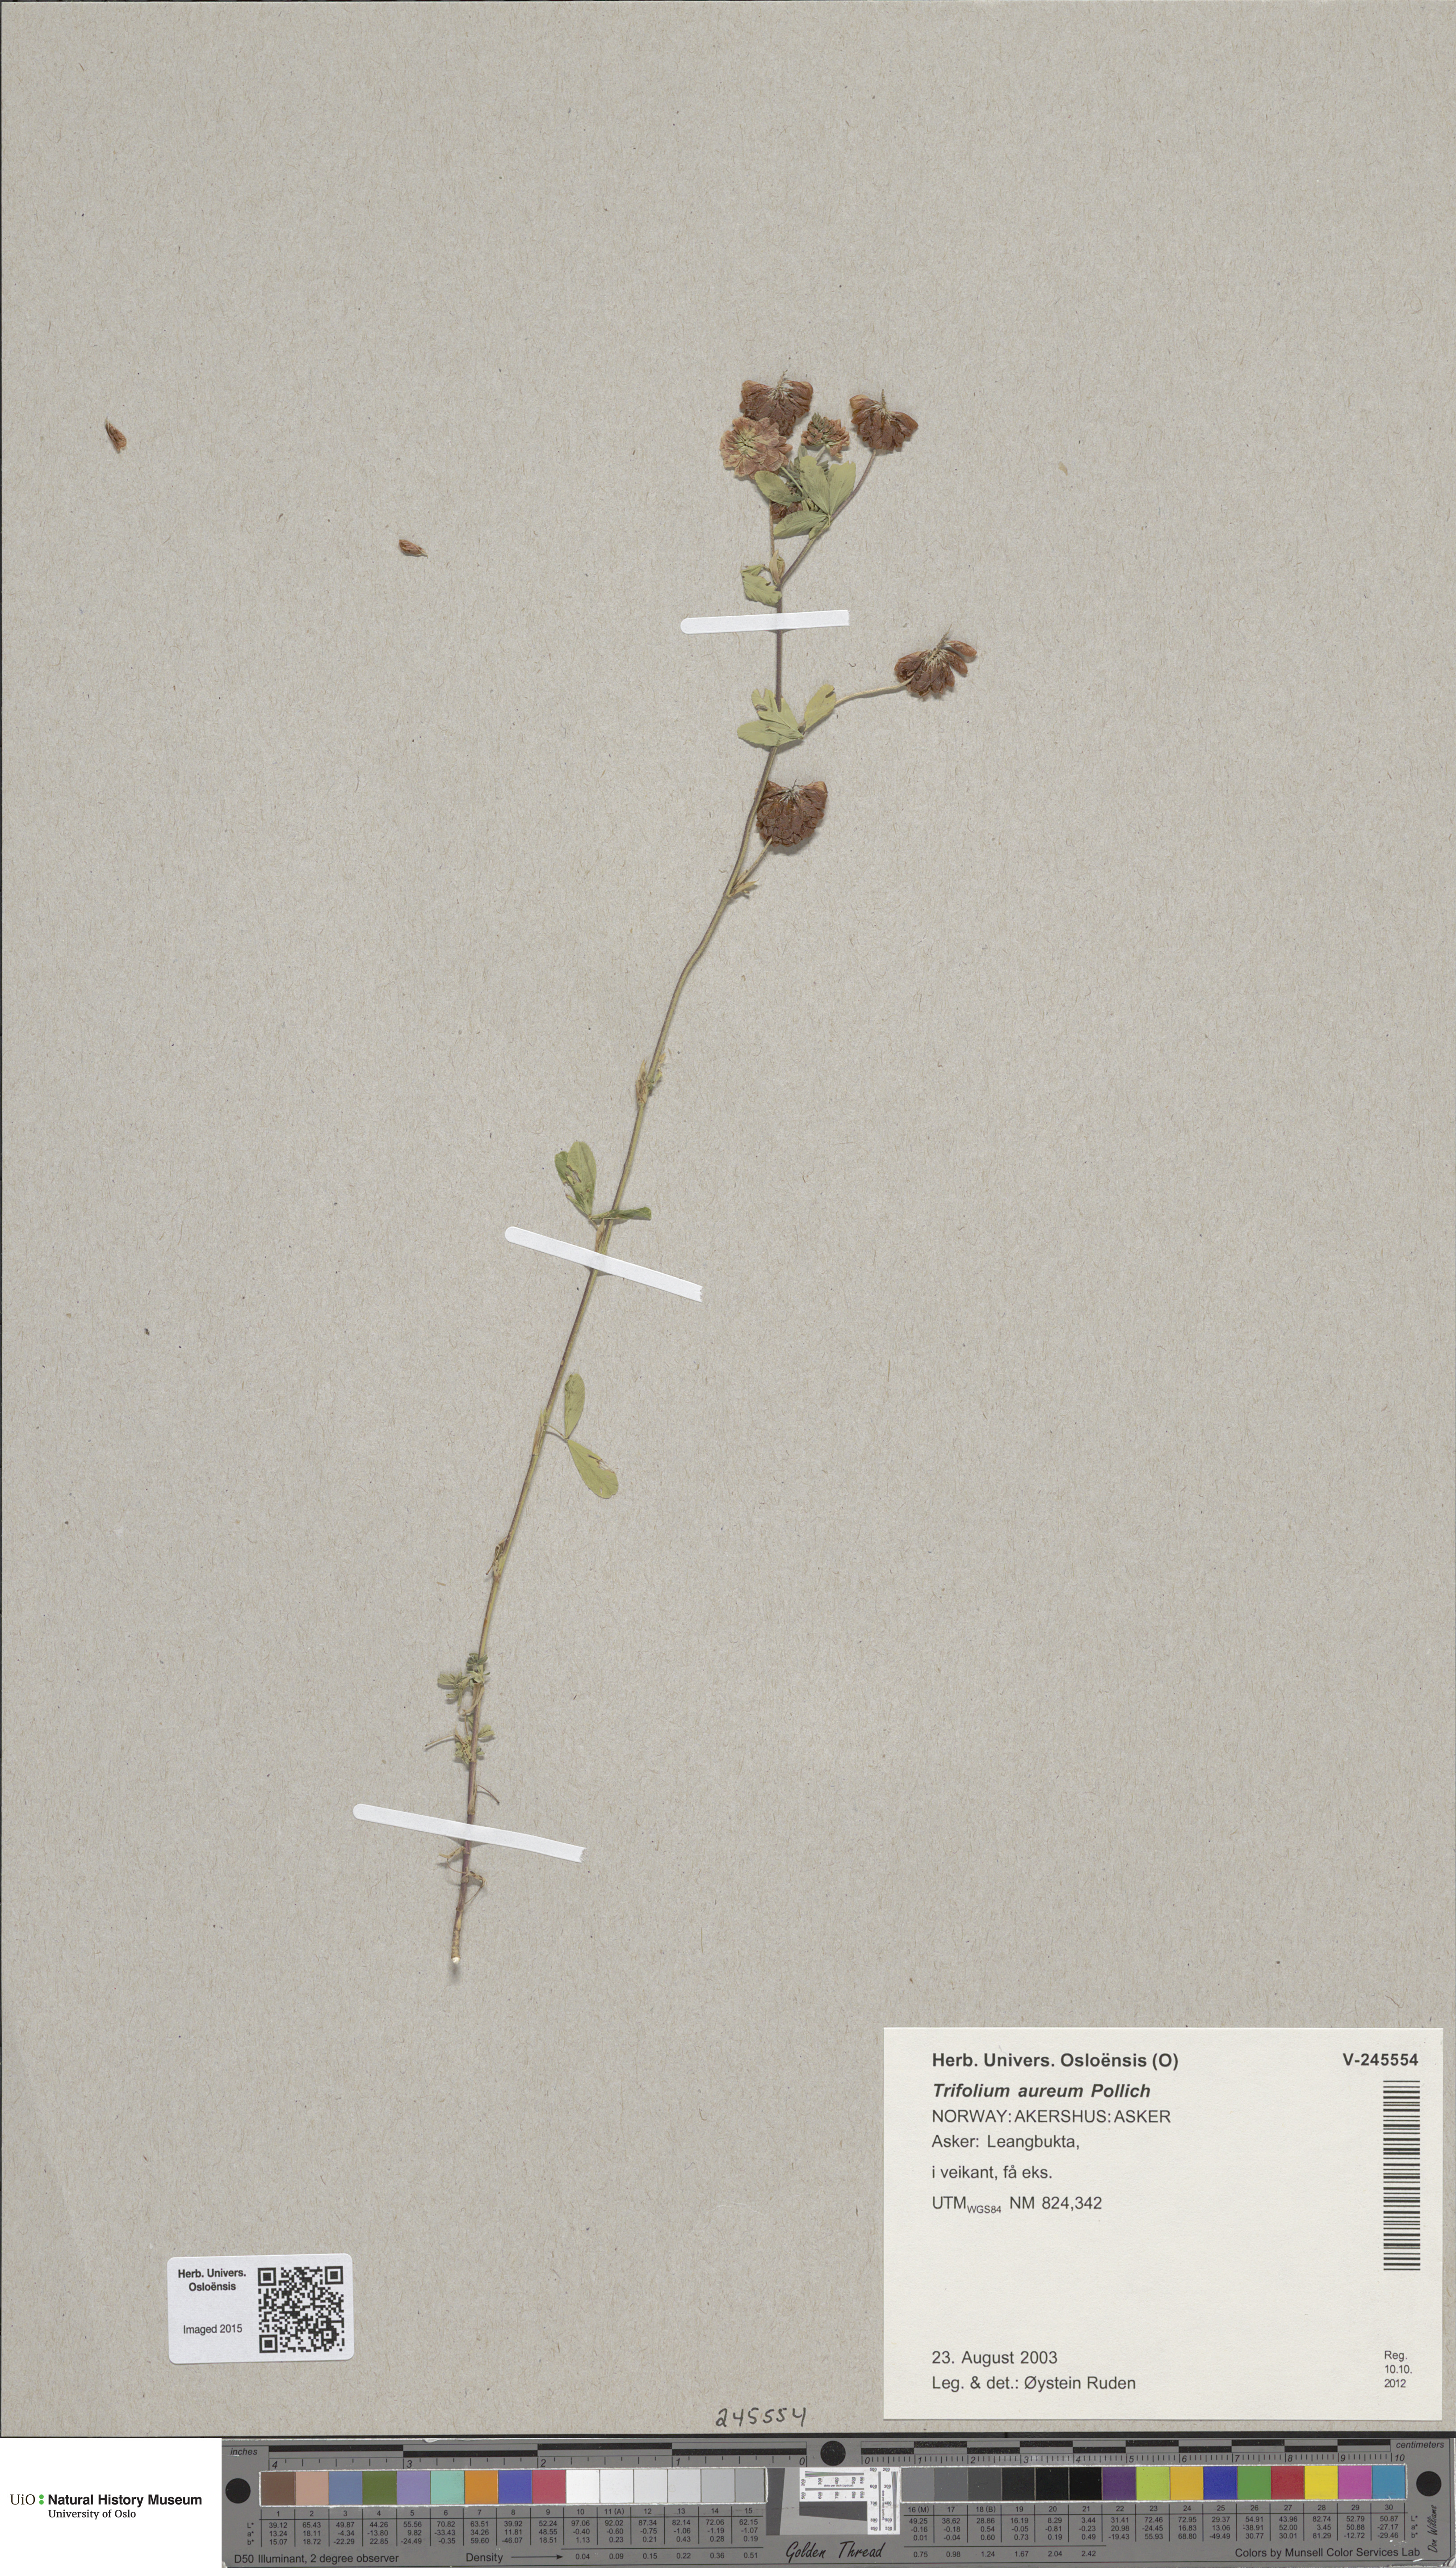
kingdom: Plantae
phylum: Tracheophyta
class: Magnoliopsida
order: Fabales
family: Fabaceae
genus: Trifolium
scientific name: Trifolium aureum
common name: Golden clover
